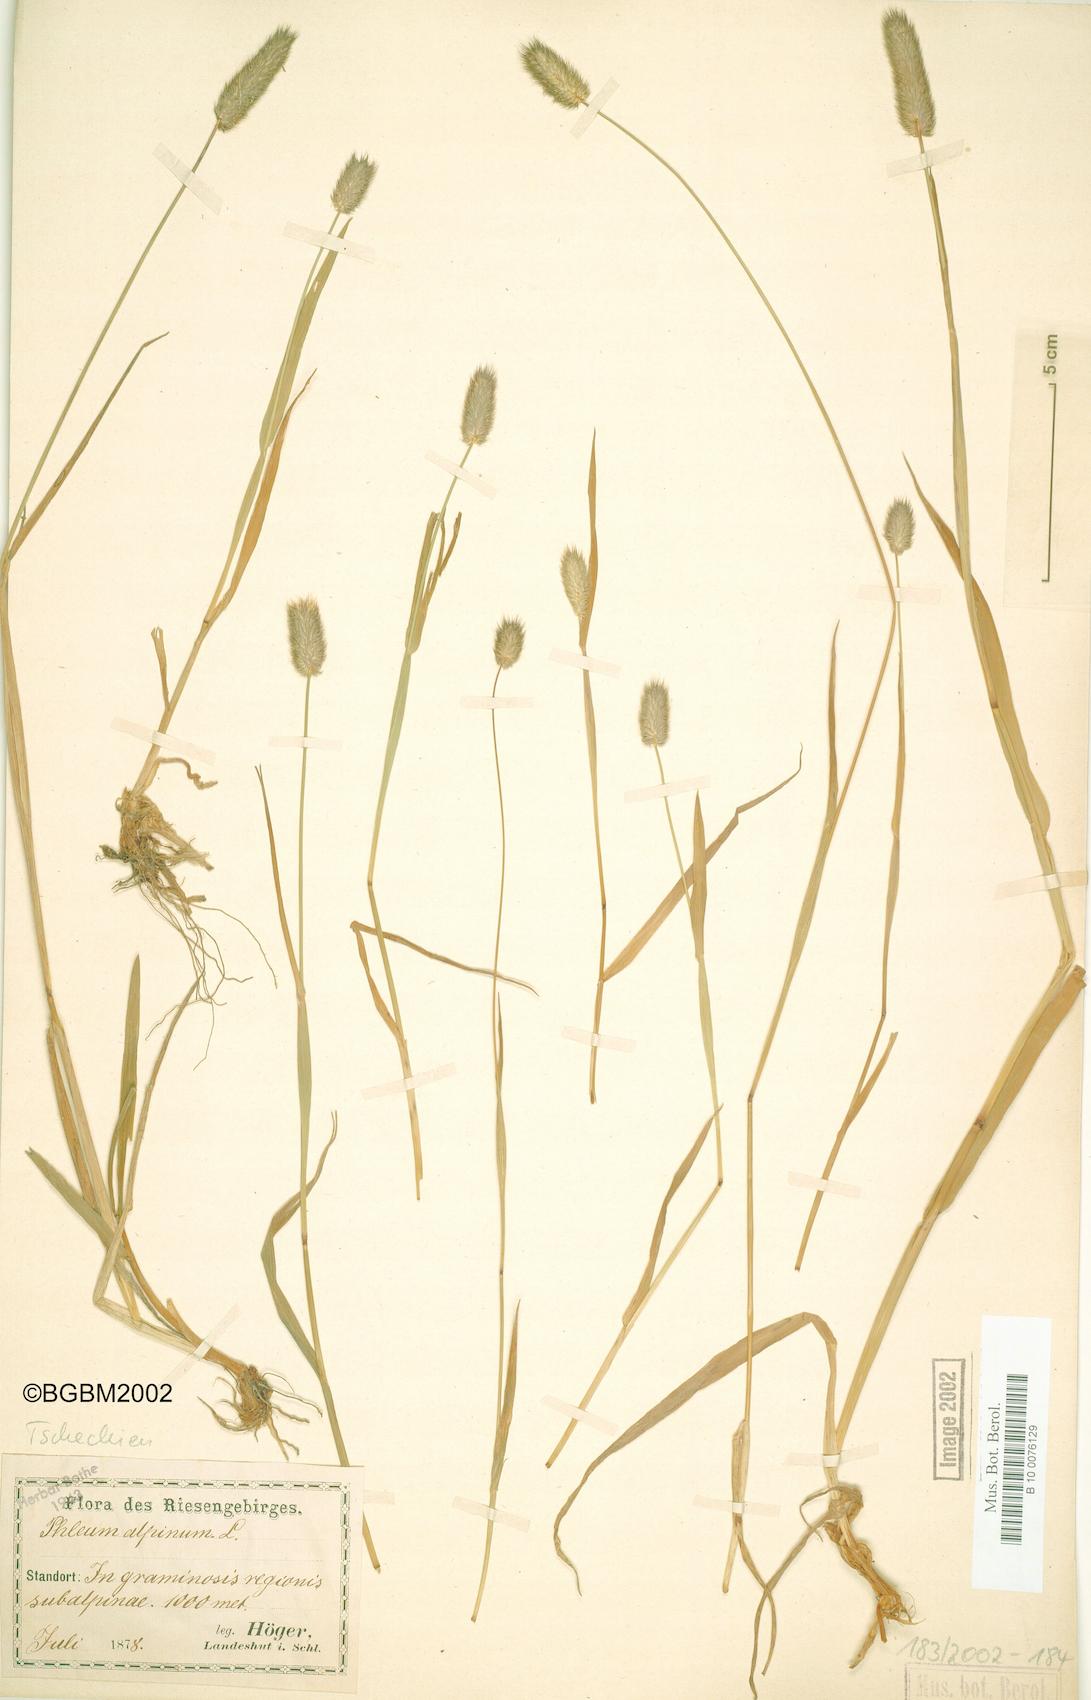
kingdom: Plantae
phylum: Tracheophyta
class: Liliopsida
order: Poales
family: Poaceae
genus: Phleum
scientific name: Phleum alpinum
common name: Alpine cat's-tail
